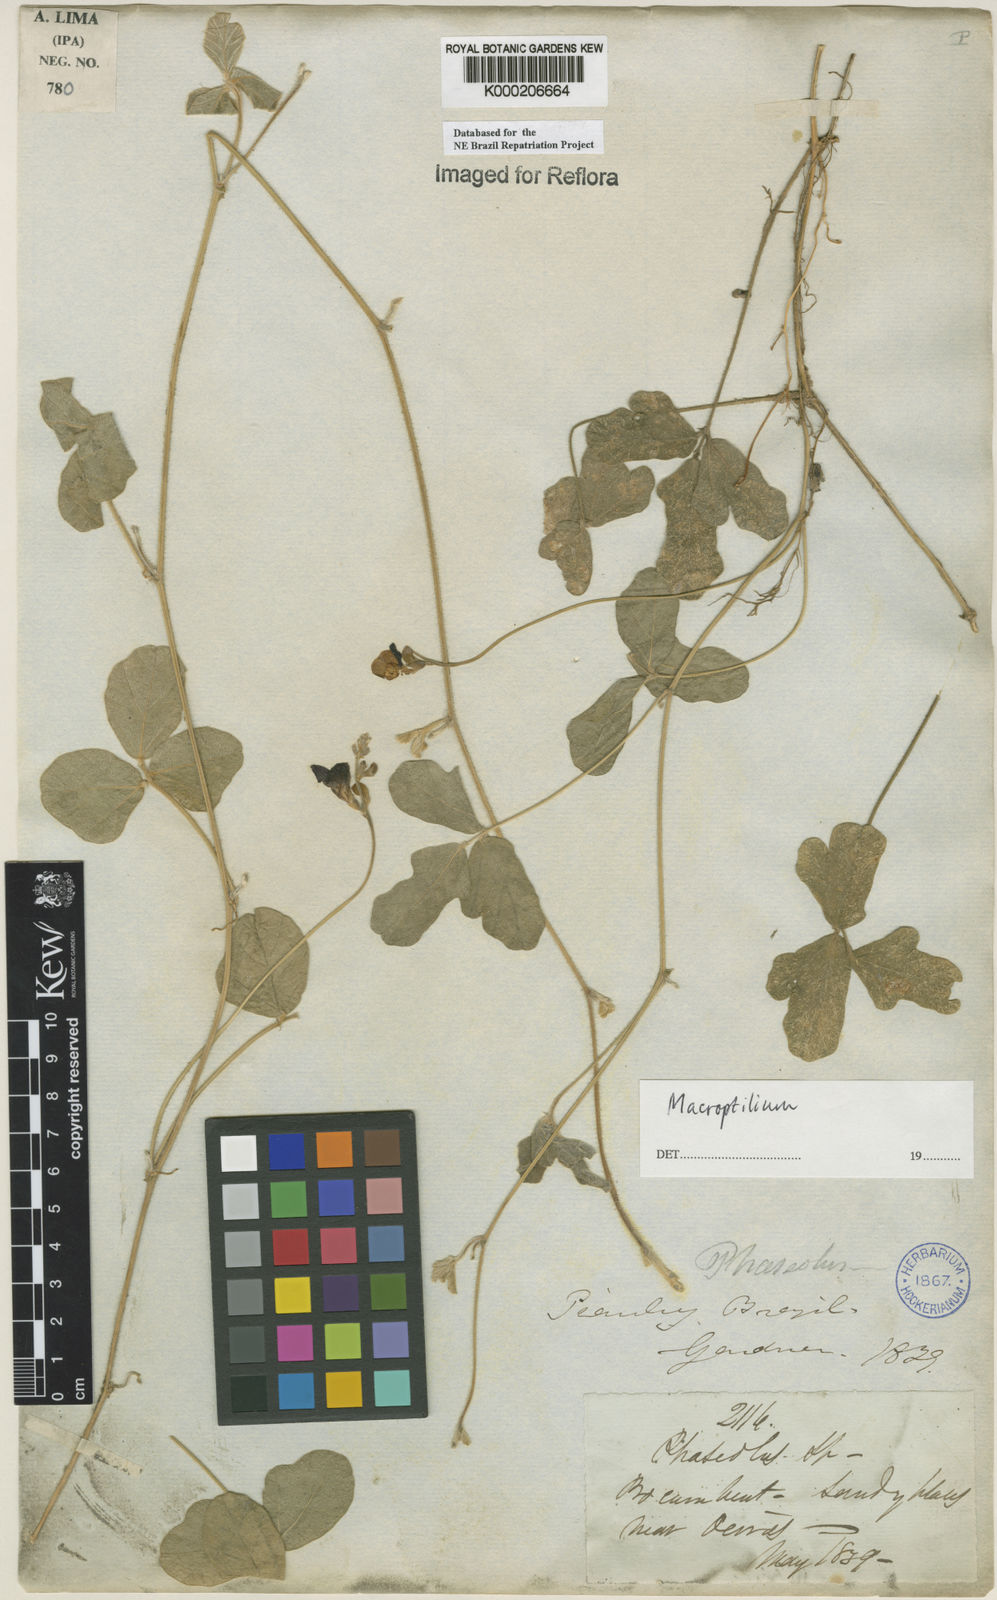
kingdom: Plantae
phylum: Tracheophyta
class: Magnoliopsida
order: Fabales
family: Fabaceae
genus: Macroptilium
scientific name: Macroptilium
